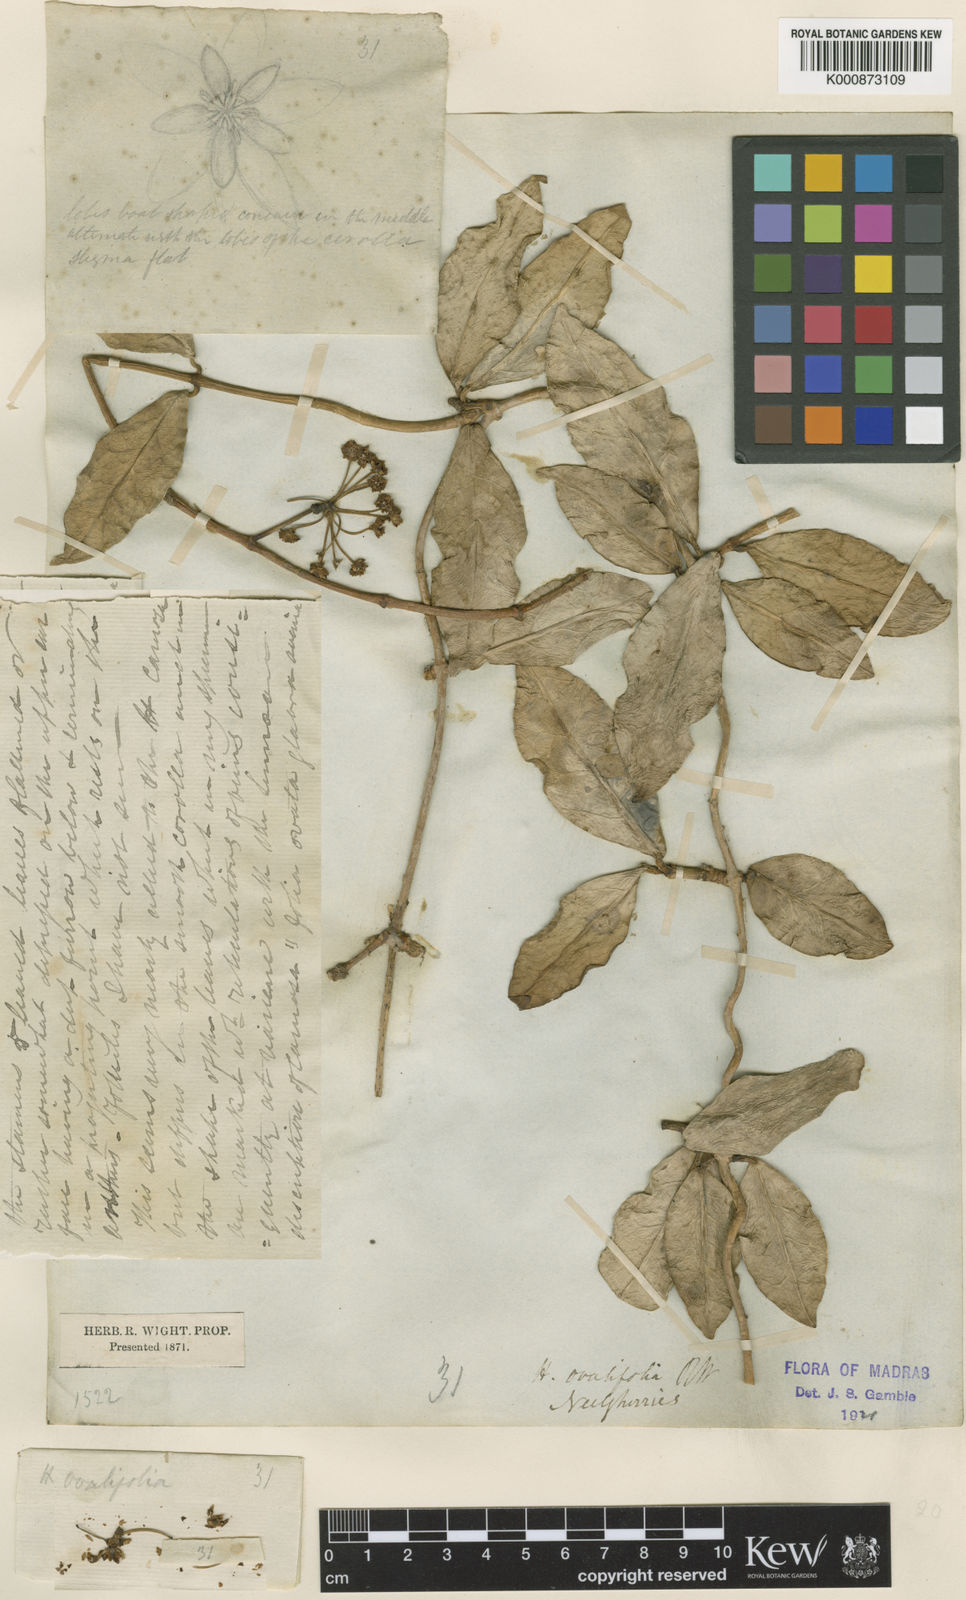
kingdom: Plantae
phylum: Tracheophyta
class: Magnoliopsida
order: Gentianales
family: Apocynaceae
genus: Hoya
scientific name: Hoya ovalifolia
